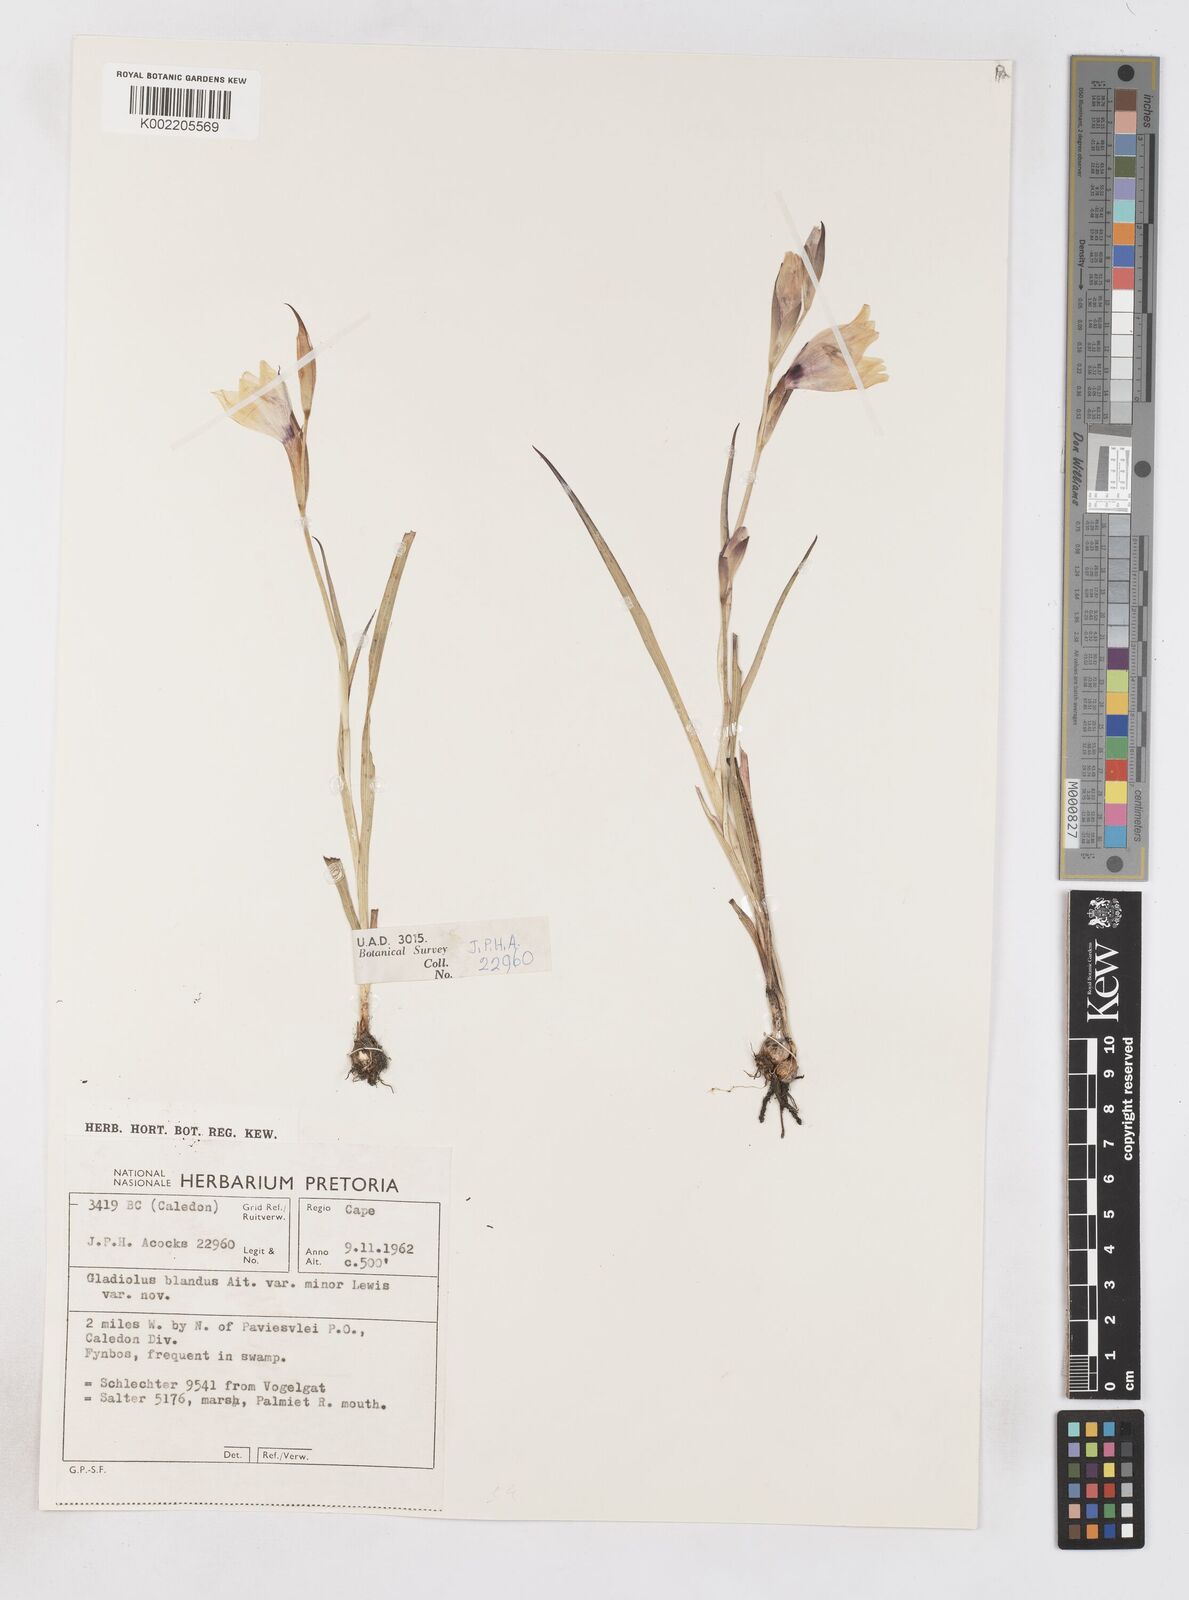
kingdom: Plantae
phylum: Tracheophyta
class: Liliopsida
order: Asparagales
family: Iridaceae
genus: Gladiolus
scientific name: Gladiolus carneus
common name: Painted-lady
